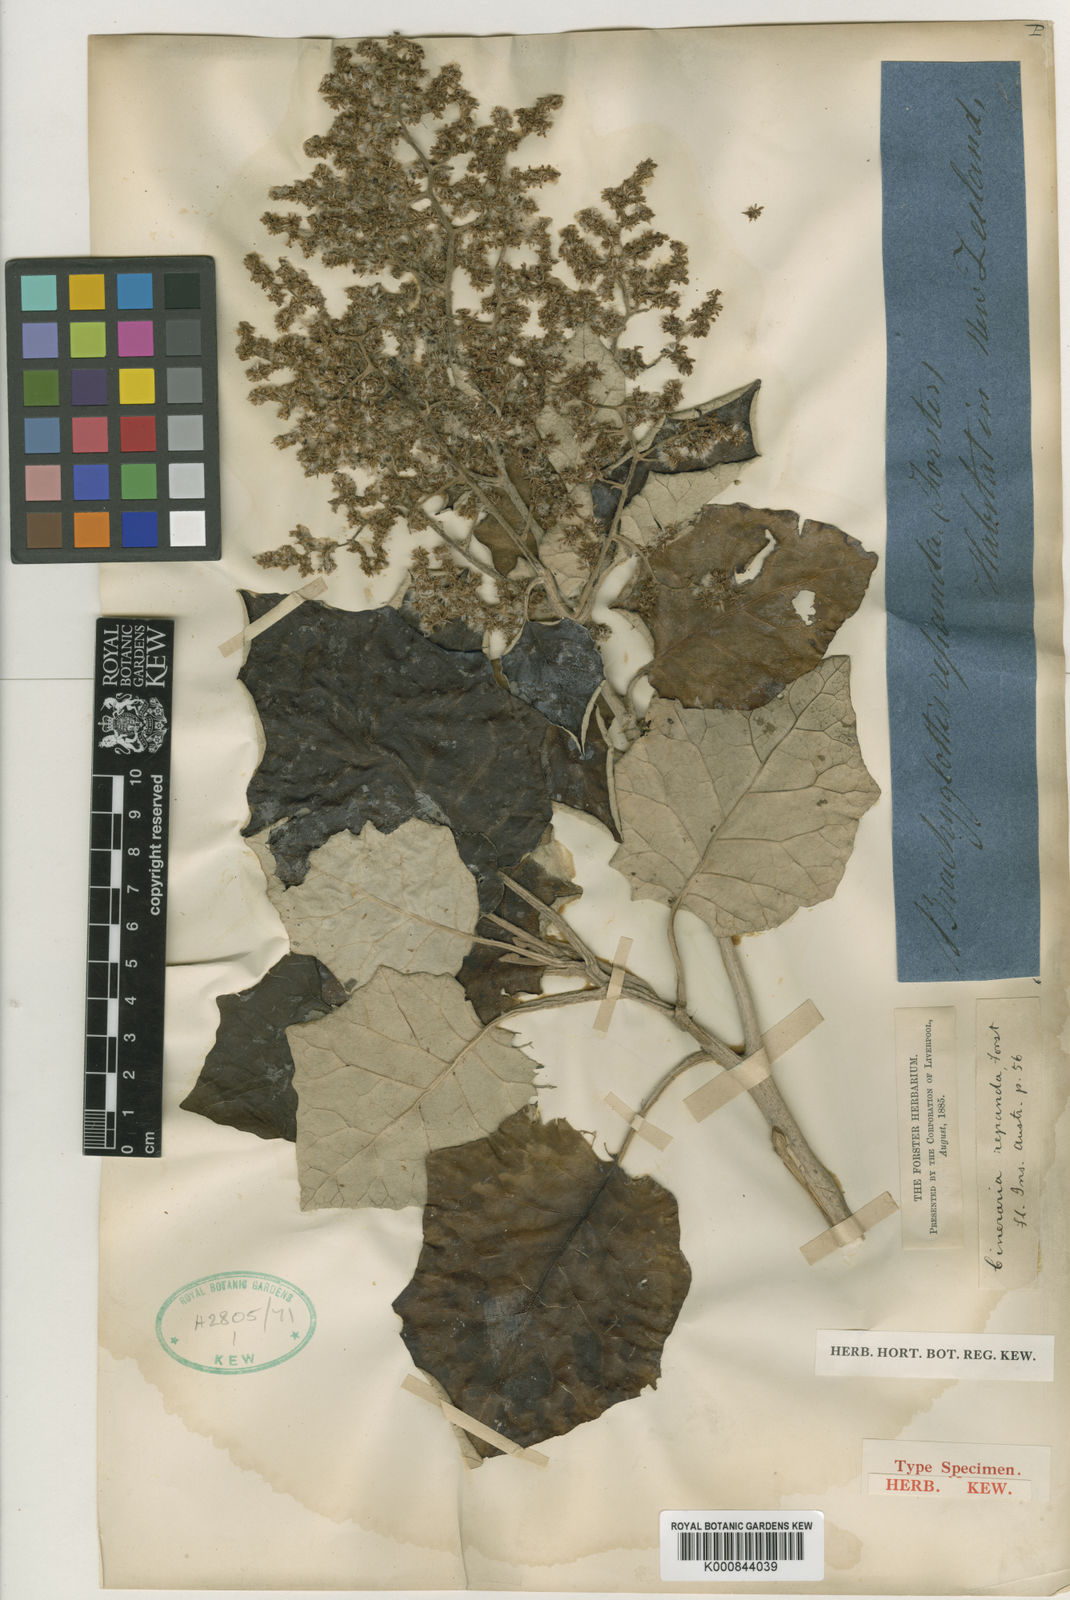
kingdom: Plantae
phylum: Tracheophyta
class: Magnoliopsida
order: Asterales
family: Asteraceae
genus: Brachyglottis
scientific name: Brachyglottis repanda
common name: Hedge ragwort
